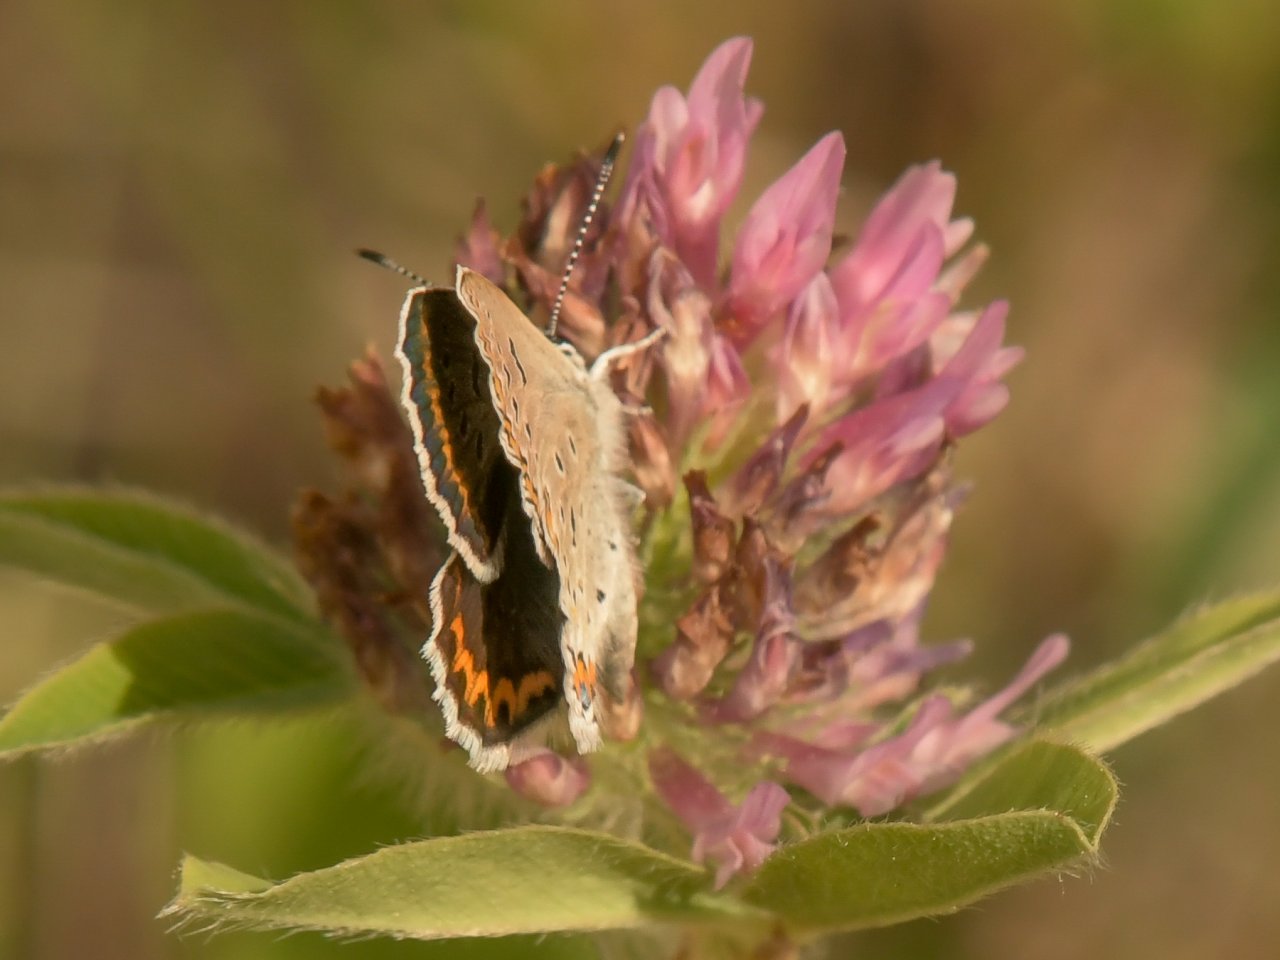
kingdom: Animalia
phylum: Arthropoda
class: Insecta
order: Lepidoptera
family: Lycaenidae
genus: Lycaeides
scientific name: Lycaeides melissa
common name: Melissa Blue
